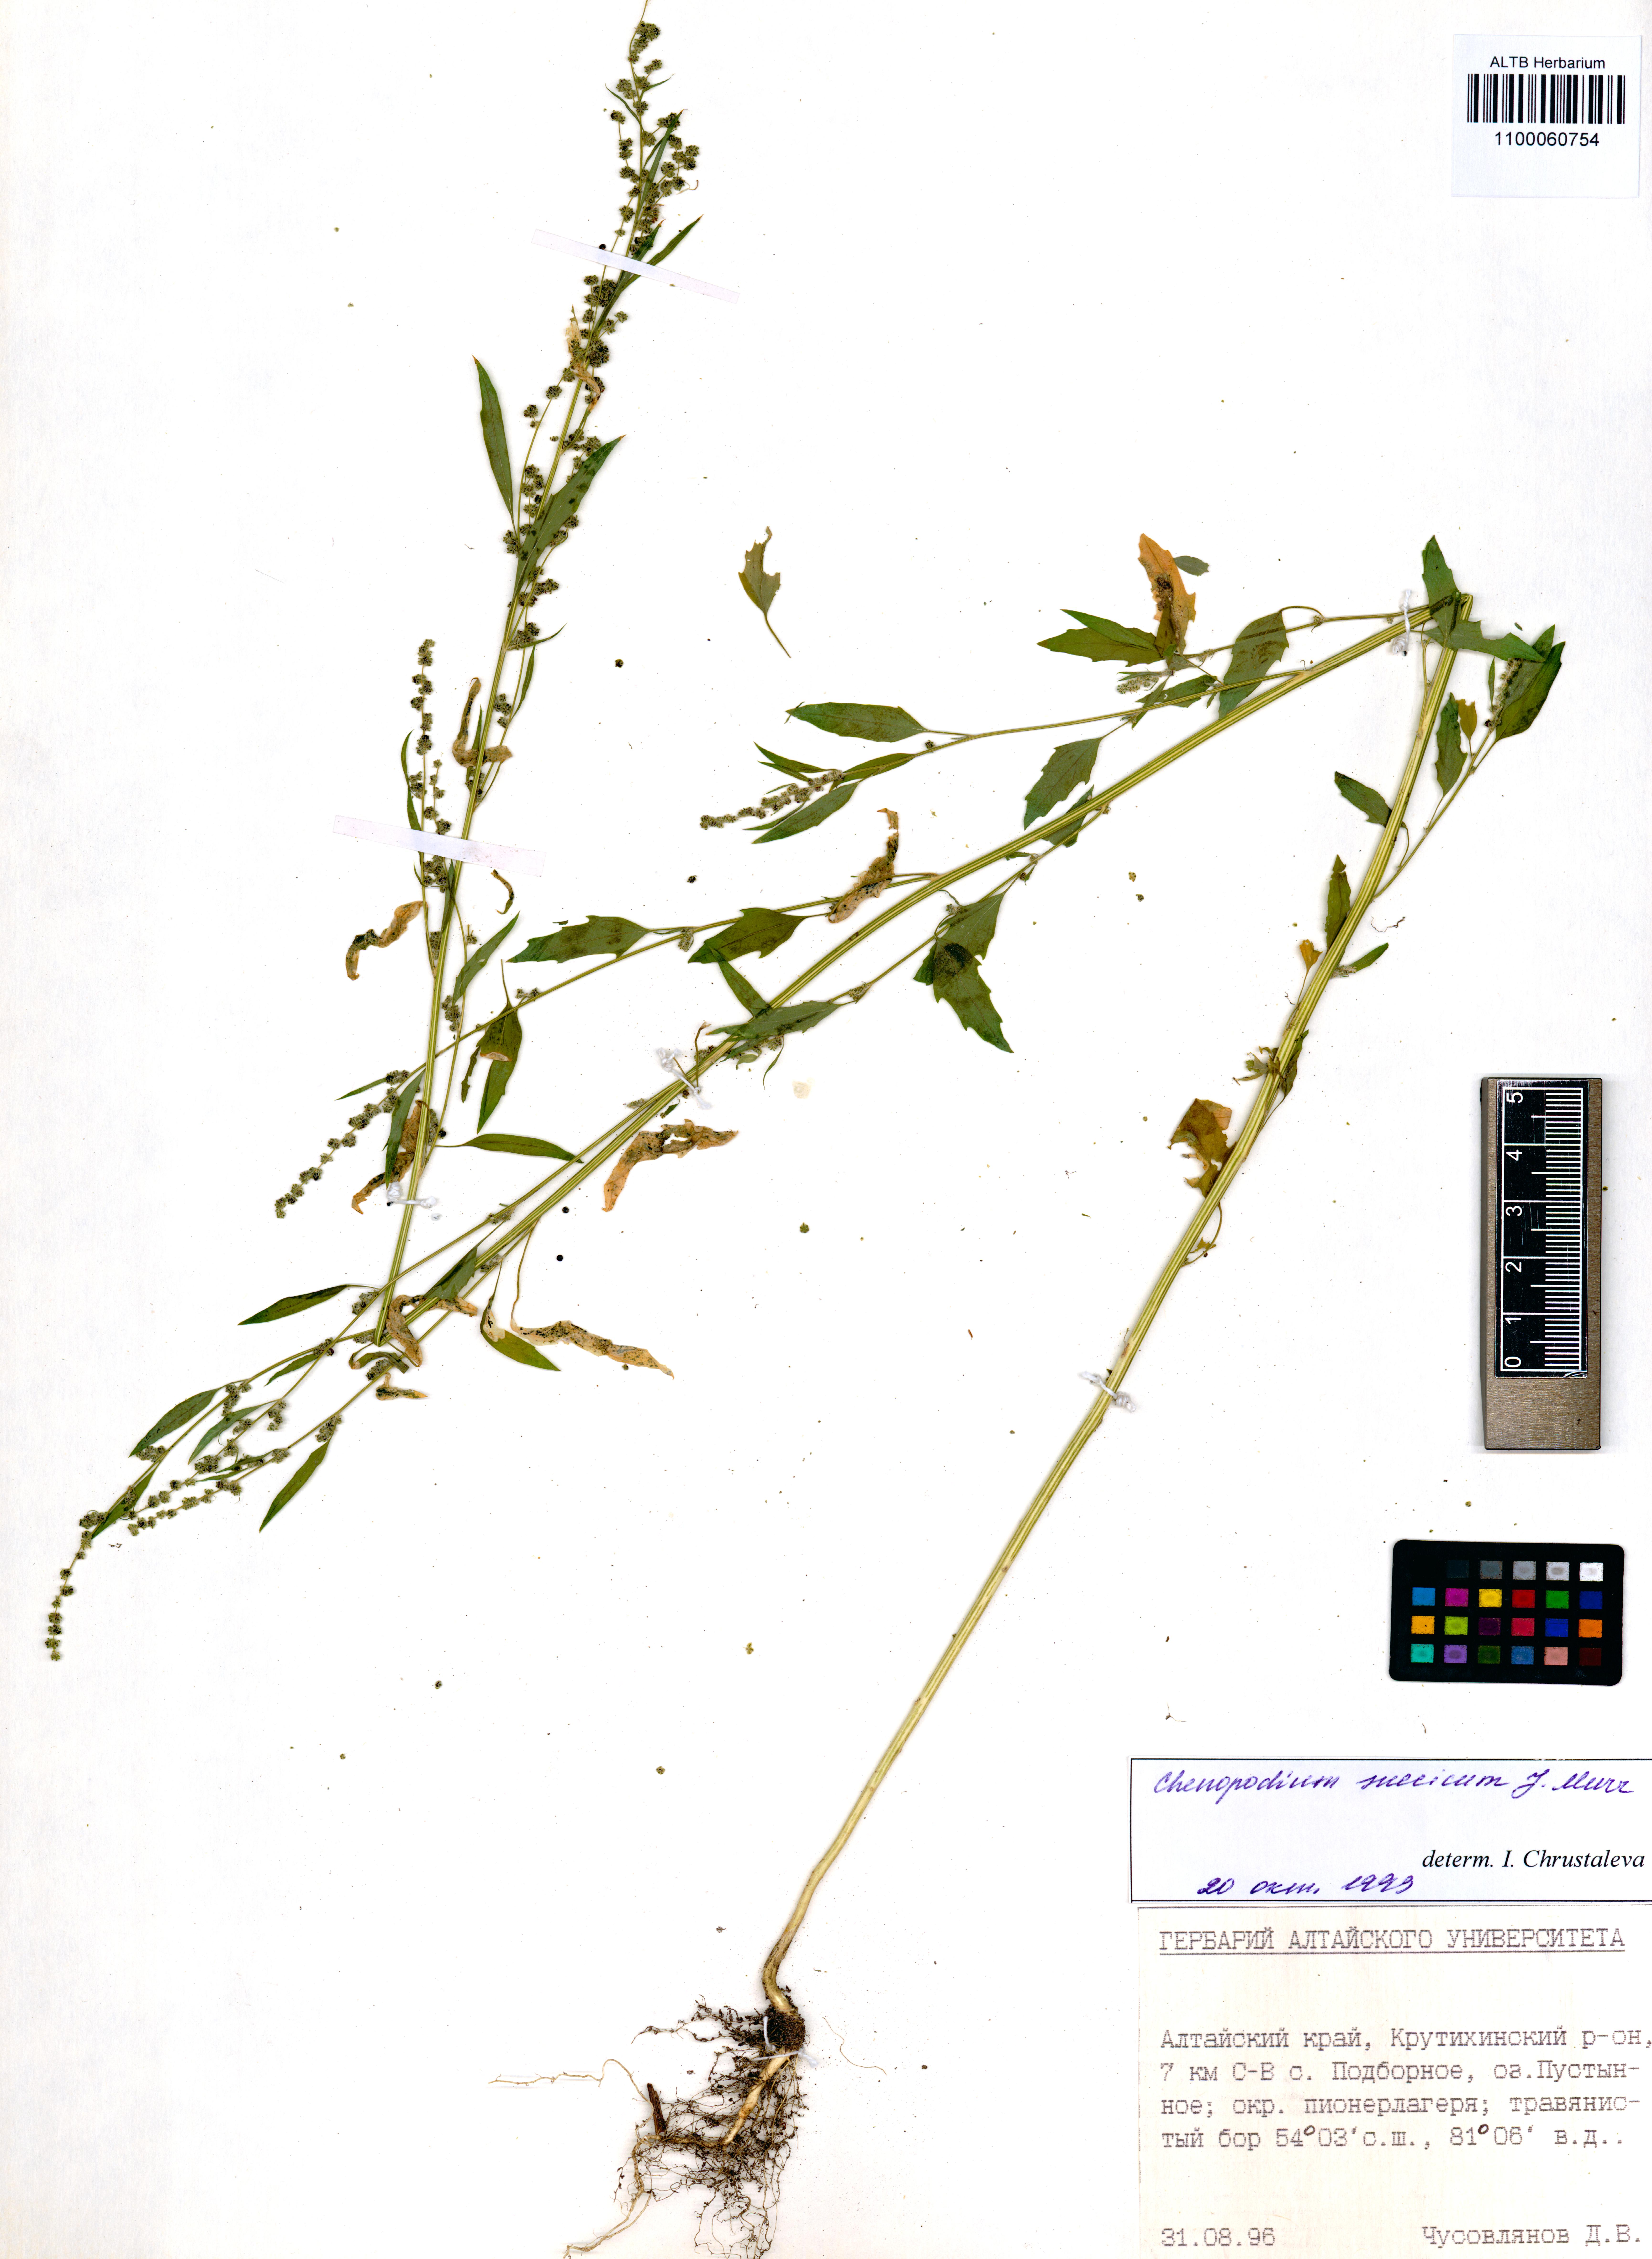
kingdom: Plantae
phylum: Tracheophyta
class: Magnoliopsida
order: Caryophyllales
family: Amaranthaceae
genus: Chenopodium
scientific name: Chenopodium suecicum
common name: Swedish goosefoot
